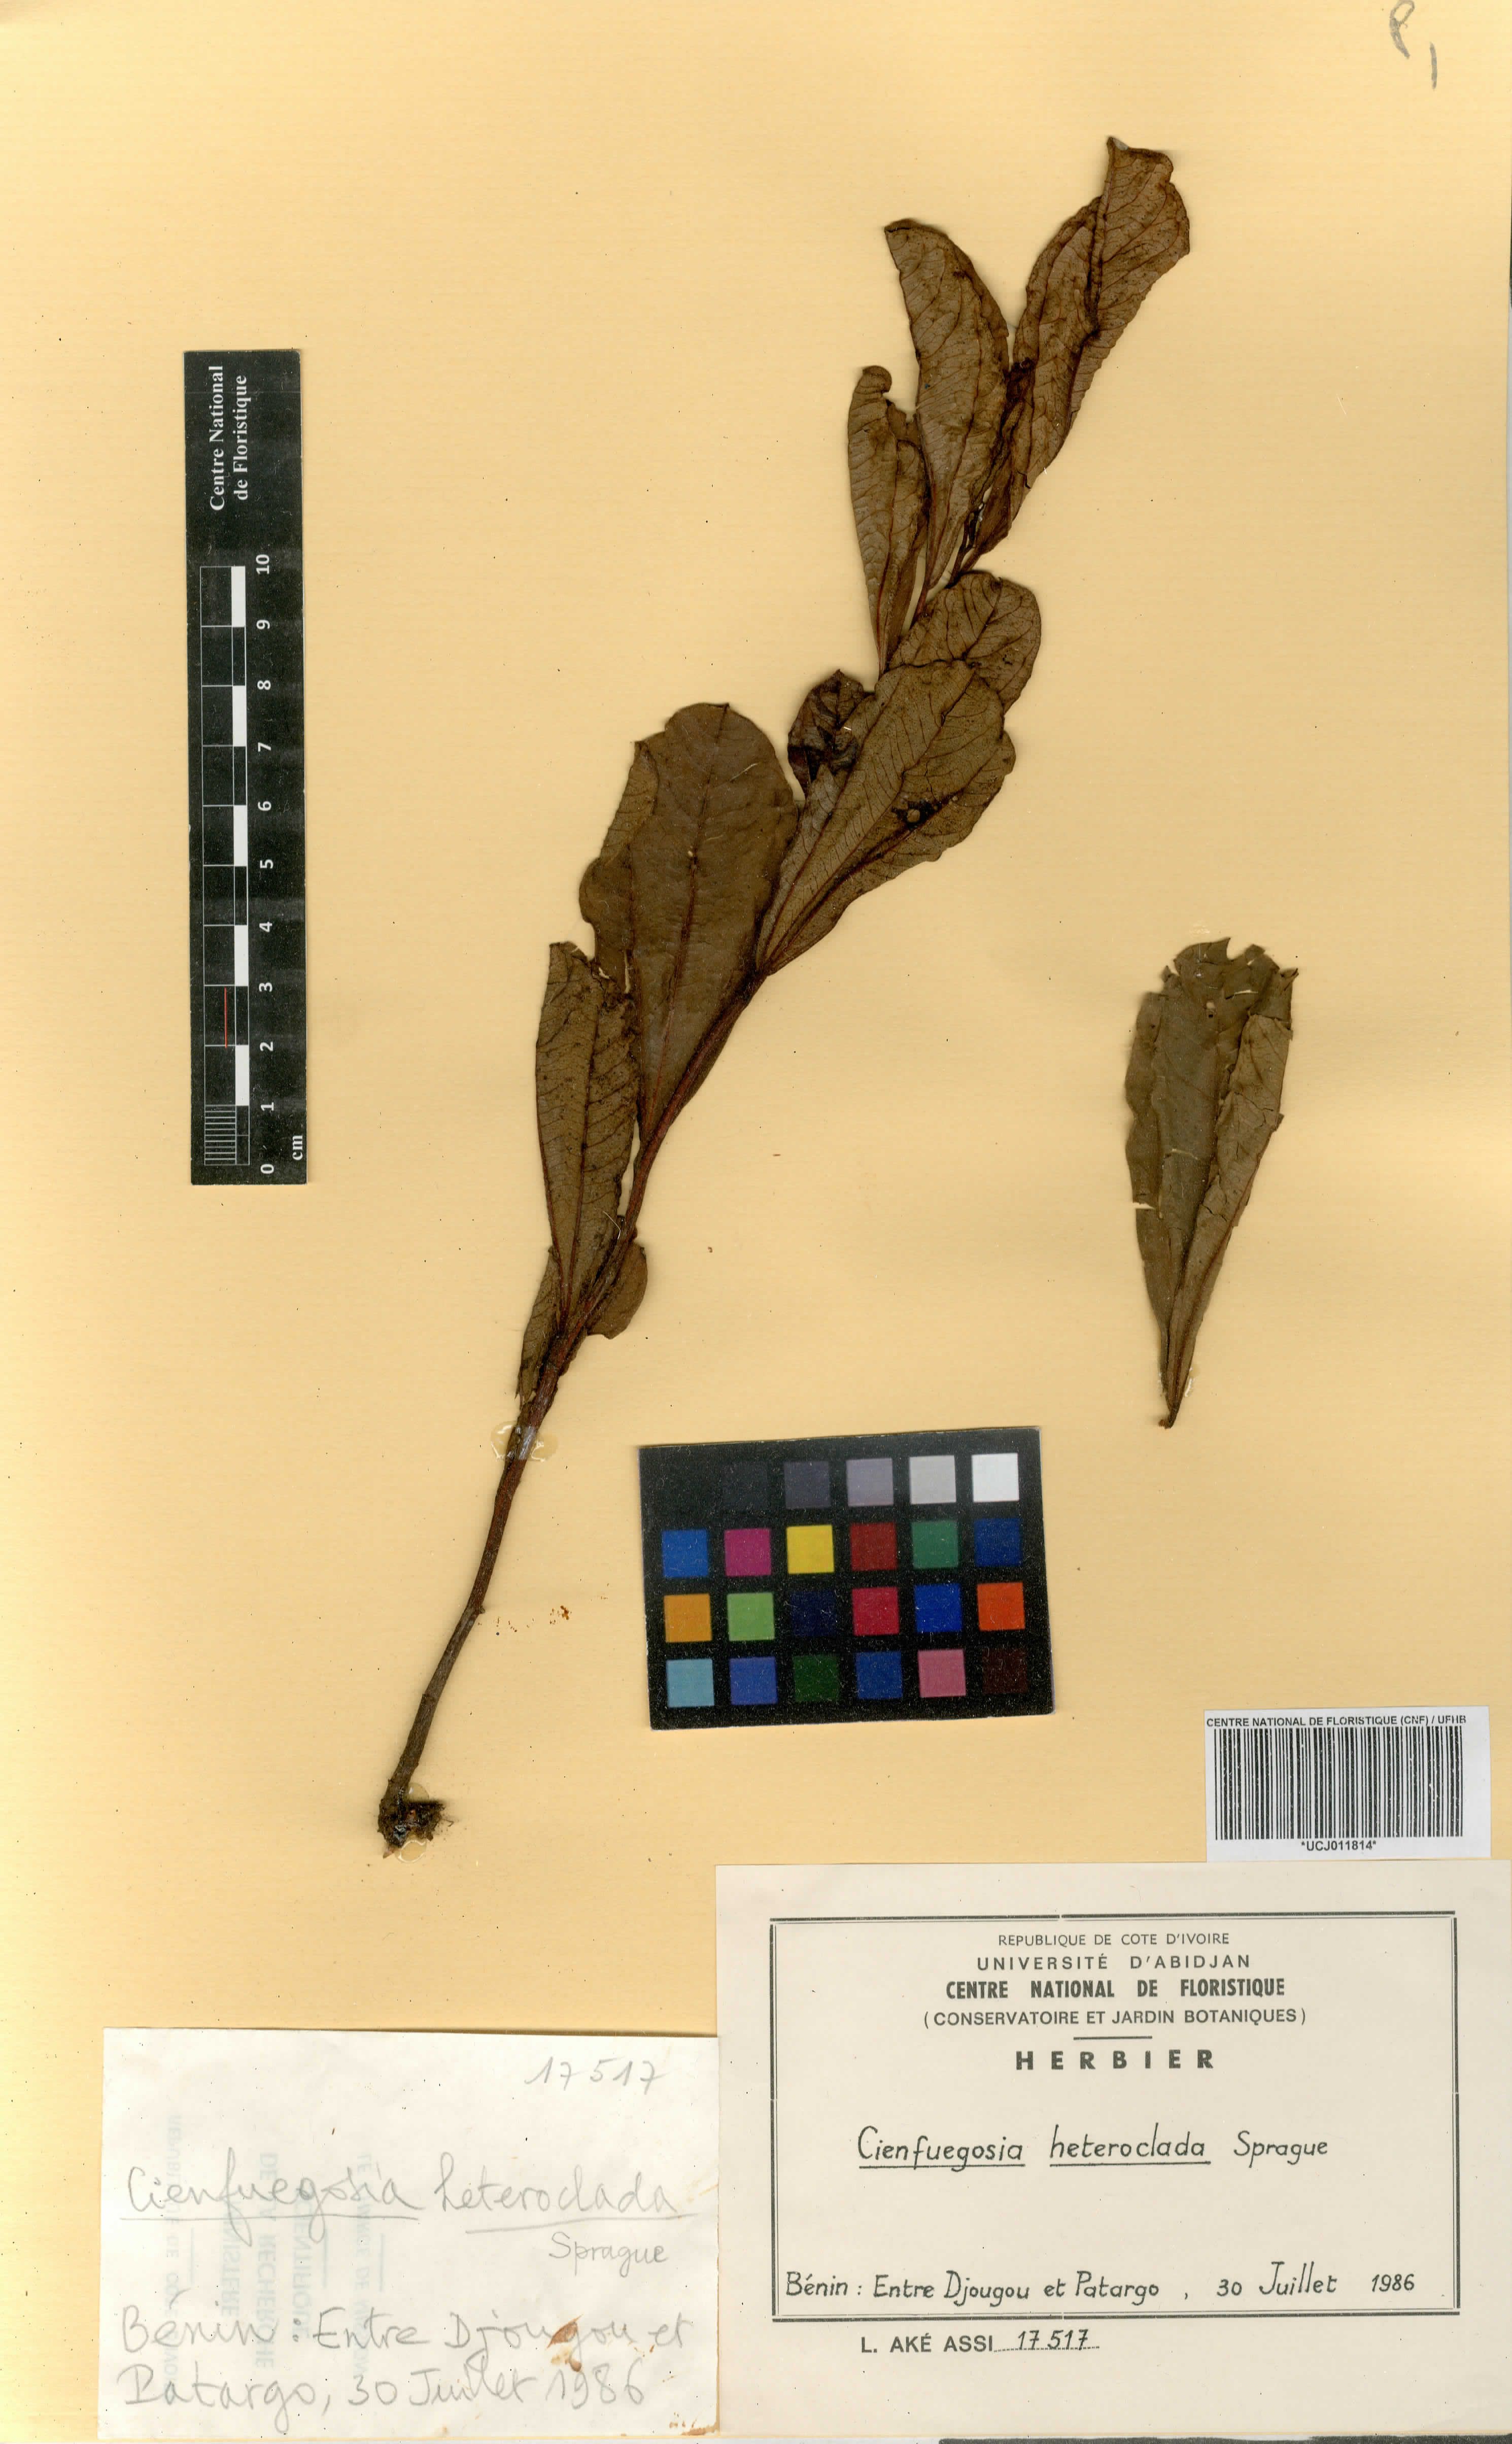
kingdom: Plantae
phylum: Tracheophyta
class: Magnoliopsida
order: Malvales
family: Malvaceae
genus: Cienfuegosia
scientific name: Cienfuegosia heteroclada
